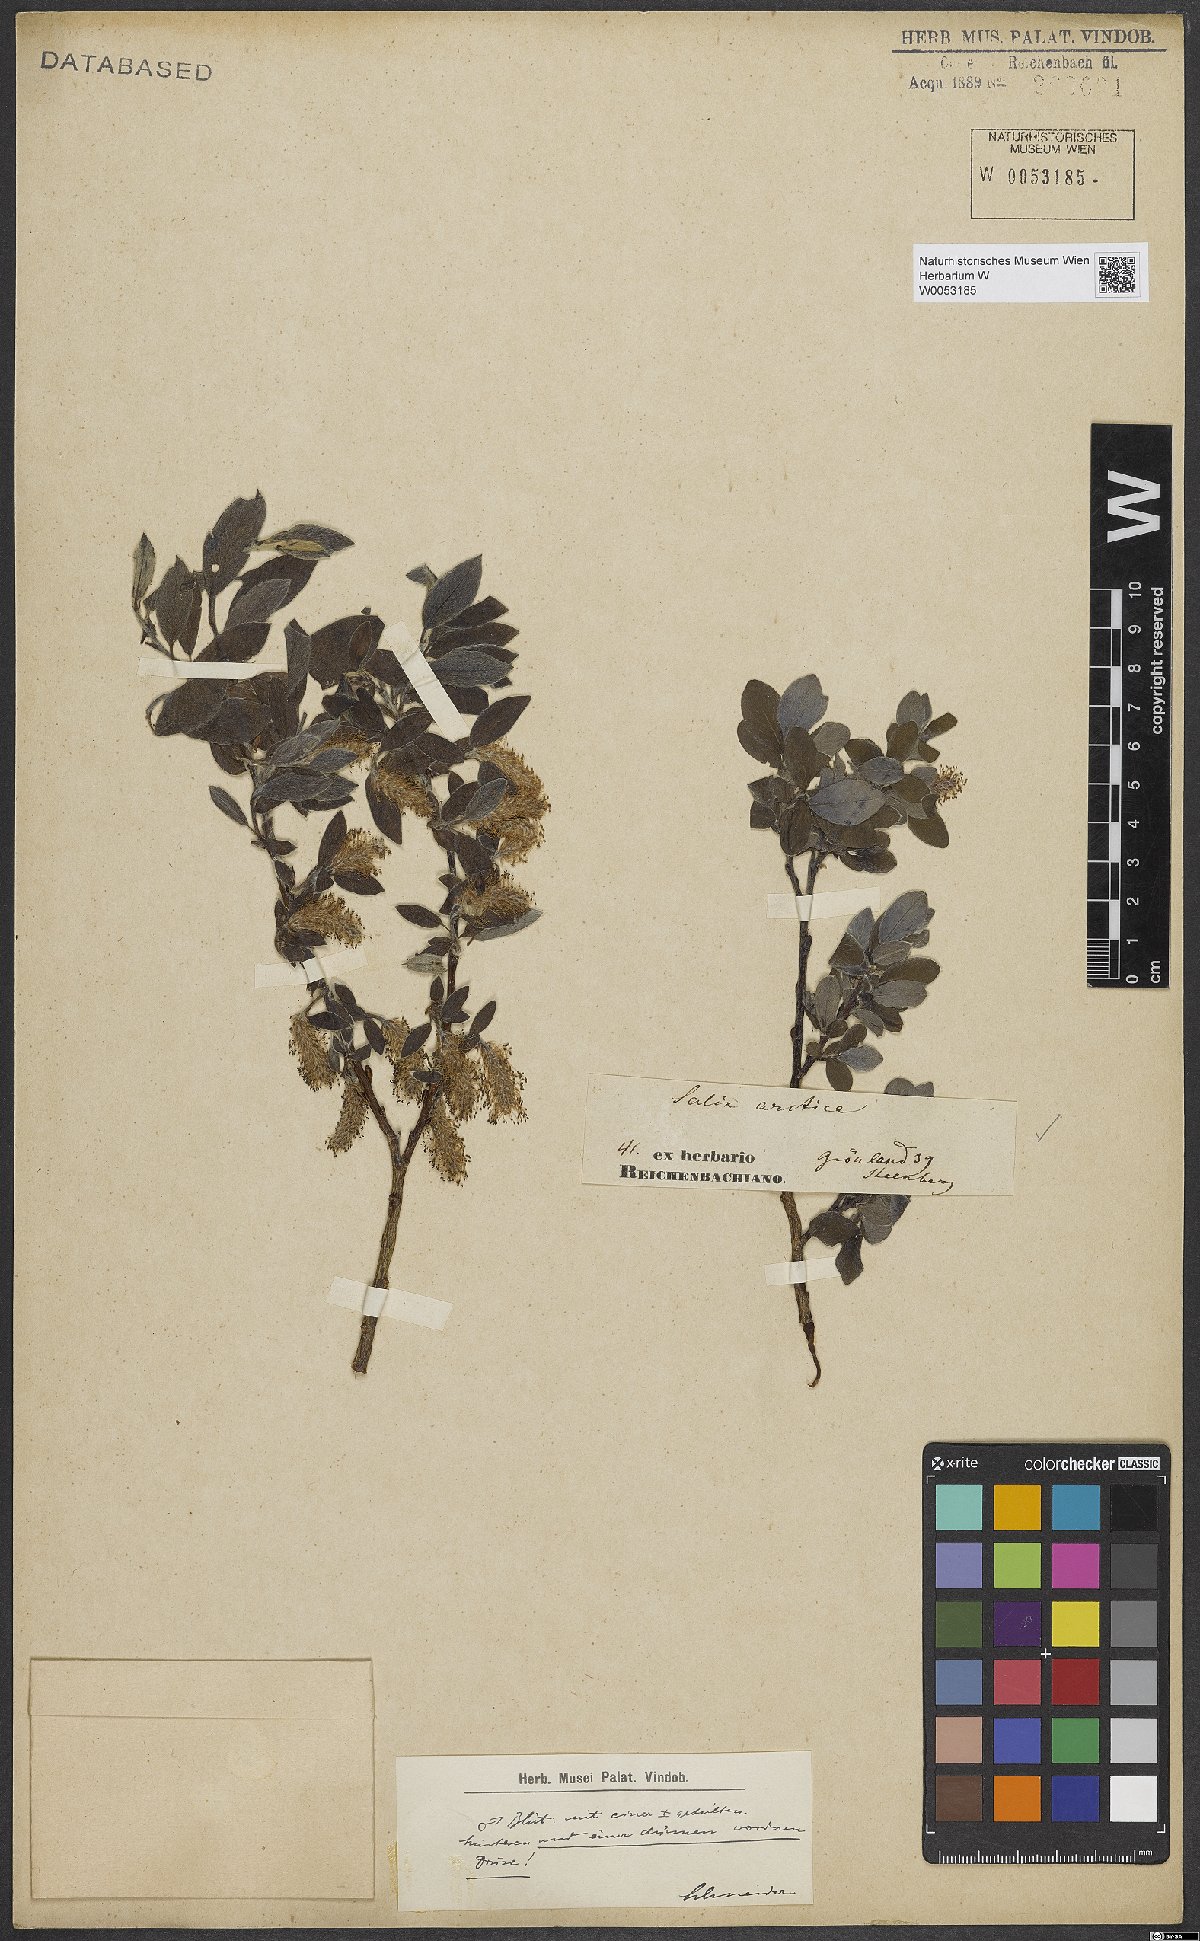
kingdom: Plantae
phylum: Tracheophyta
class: Magnoliopsida
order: Malpighiales
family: Salicaceae
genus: Salix
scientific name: Salix arctica
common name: Arctic willow
